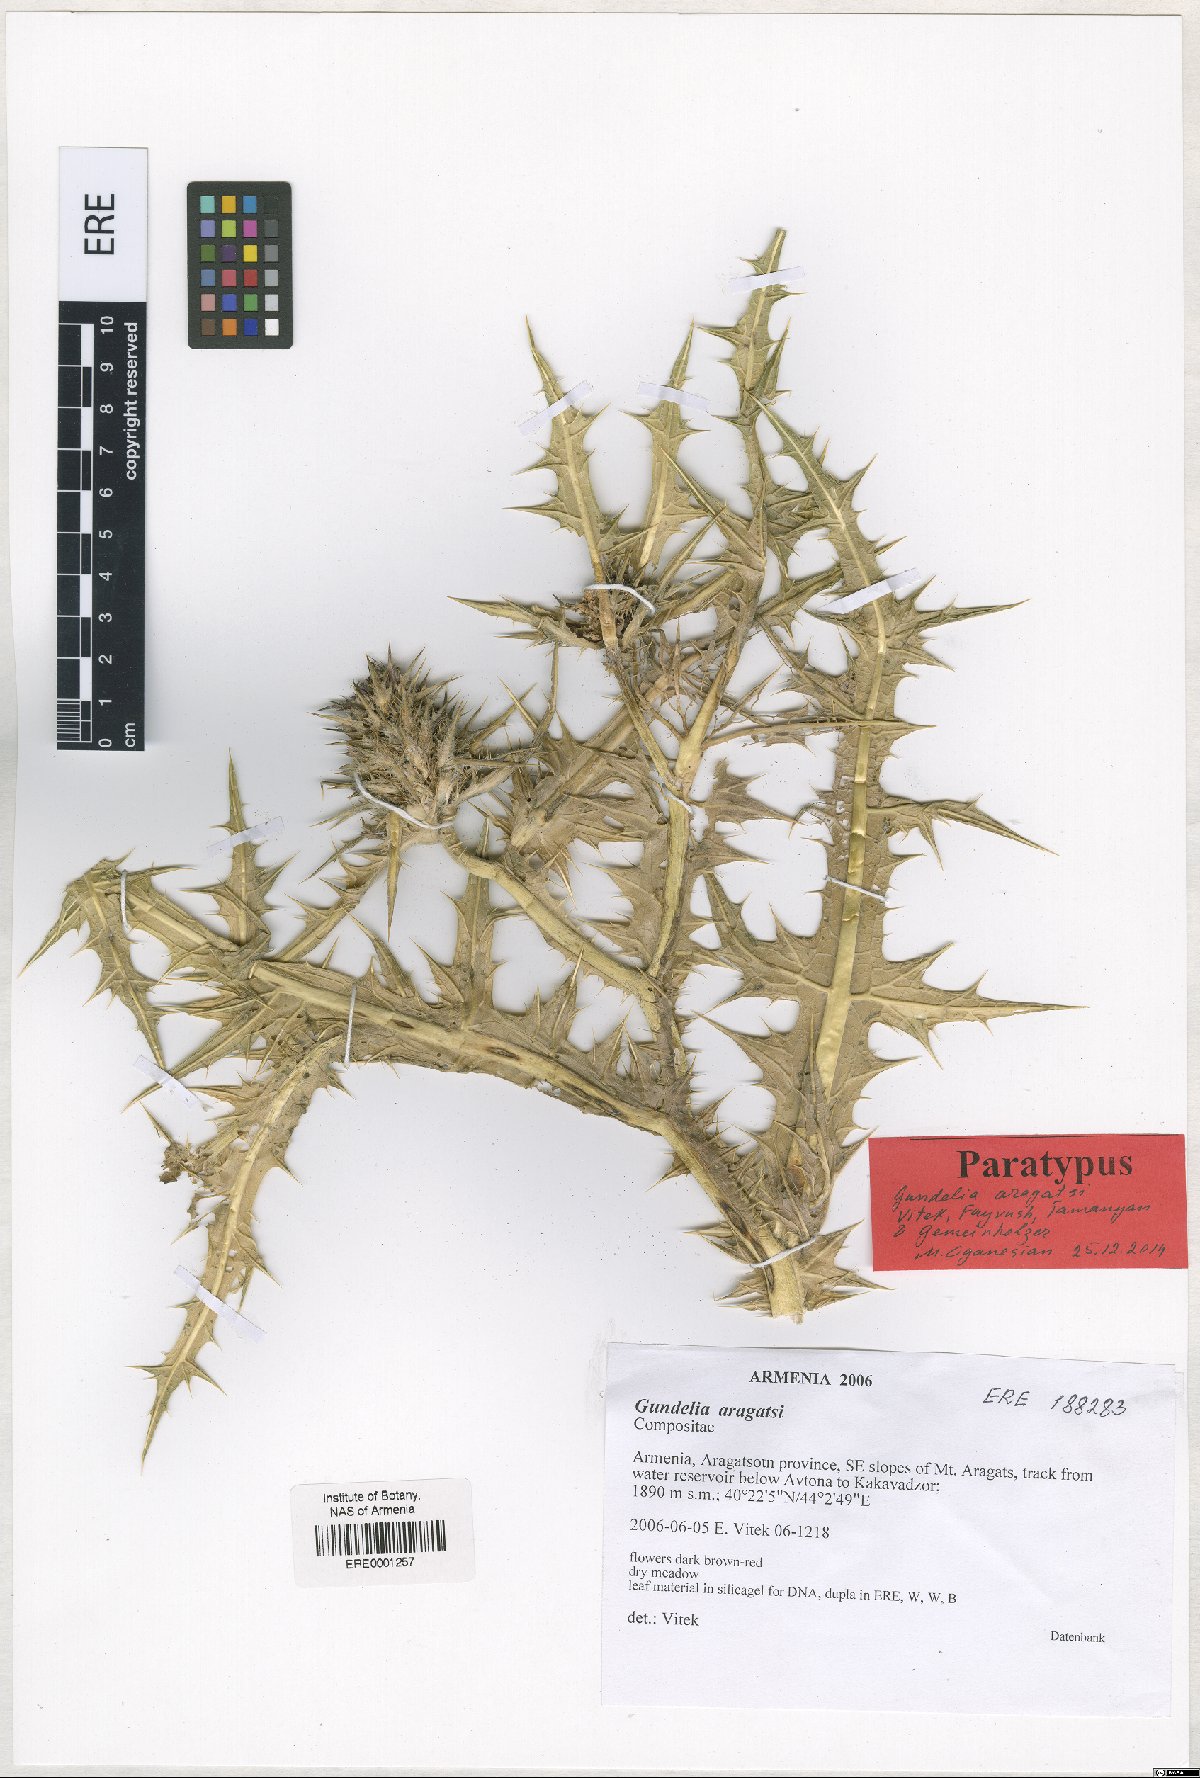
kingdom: Plantae
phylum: Tracheophyta
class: Magnoliopsida
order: Asterales
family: Asteraceae
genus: Gundelia
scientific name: Gundelia aragatsi
